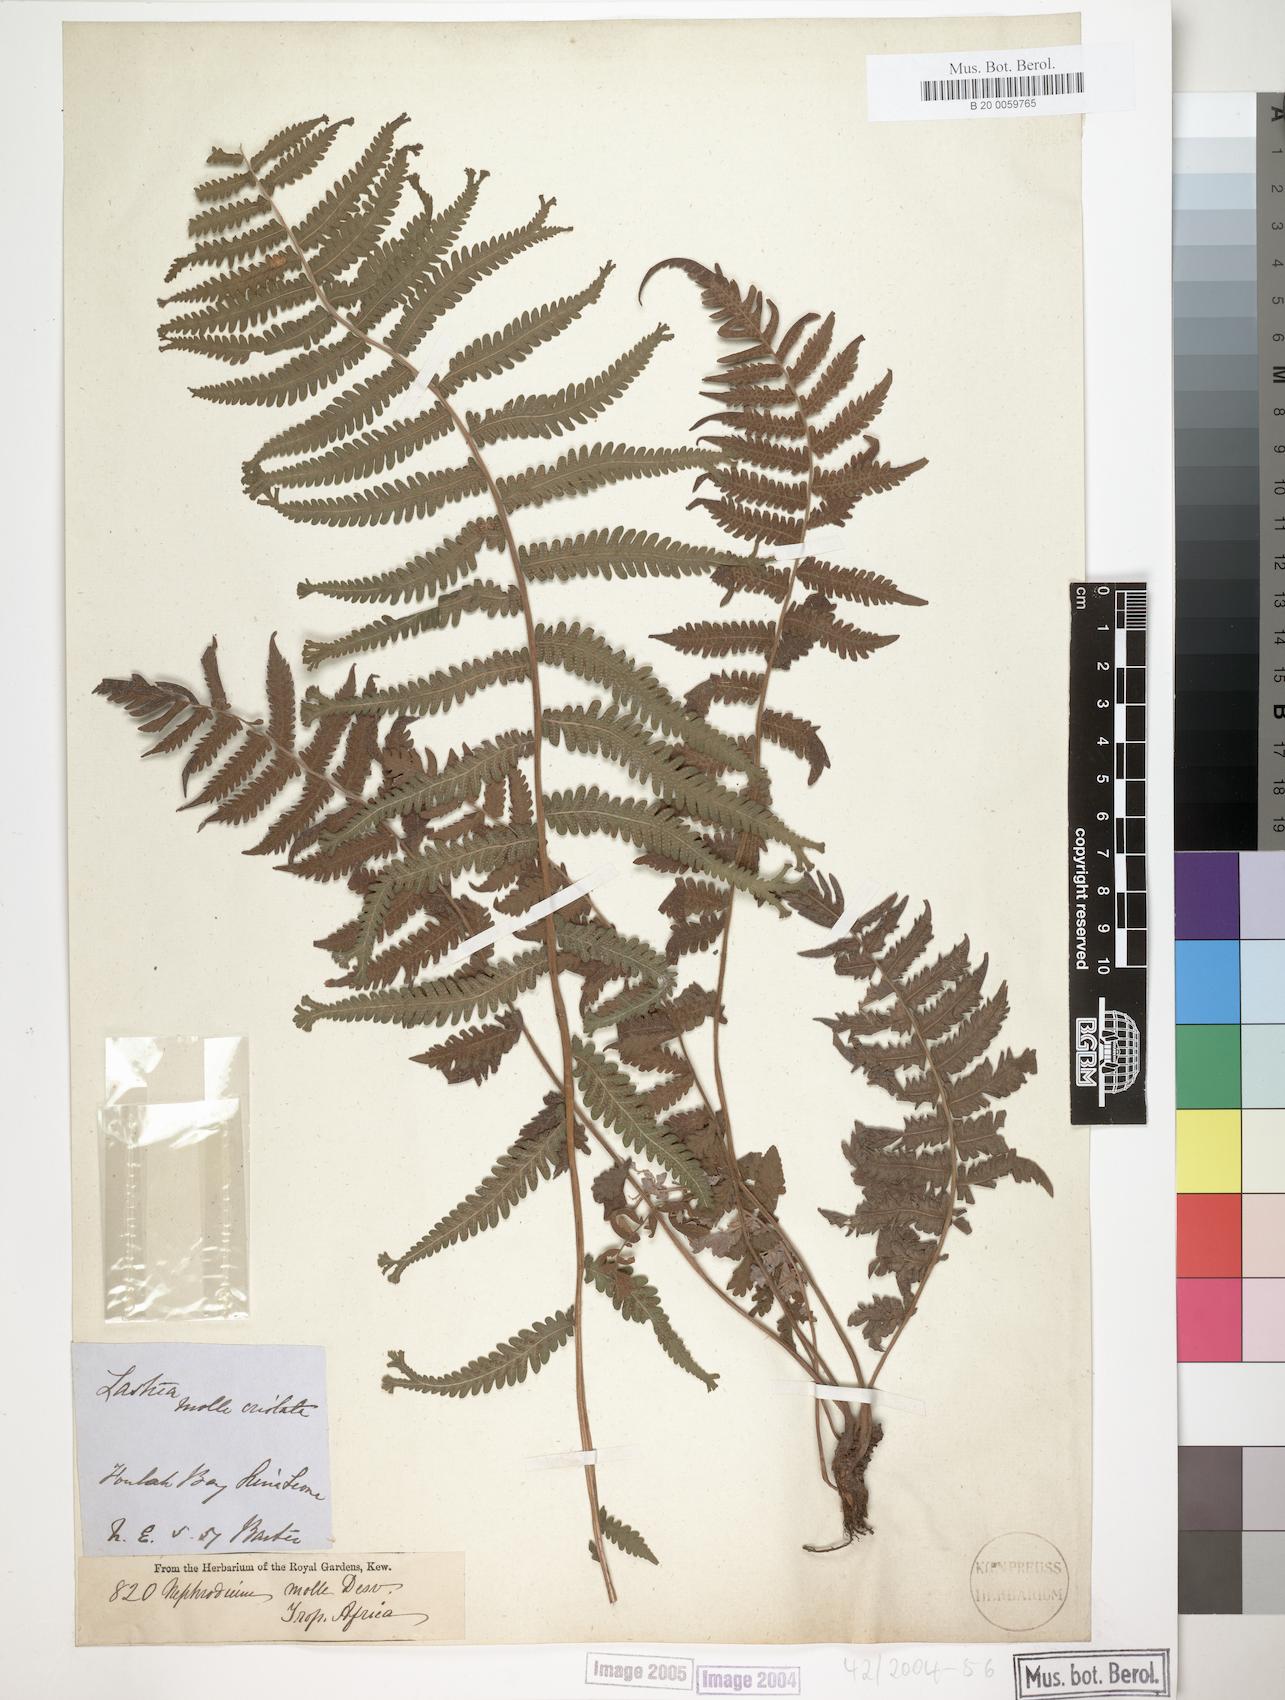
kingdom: Plantae
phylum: Tracheophyta
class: Polypodiopsida
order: Polypodiales
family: Thelypteridaceae
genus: Christella
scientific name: Christella dentata
